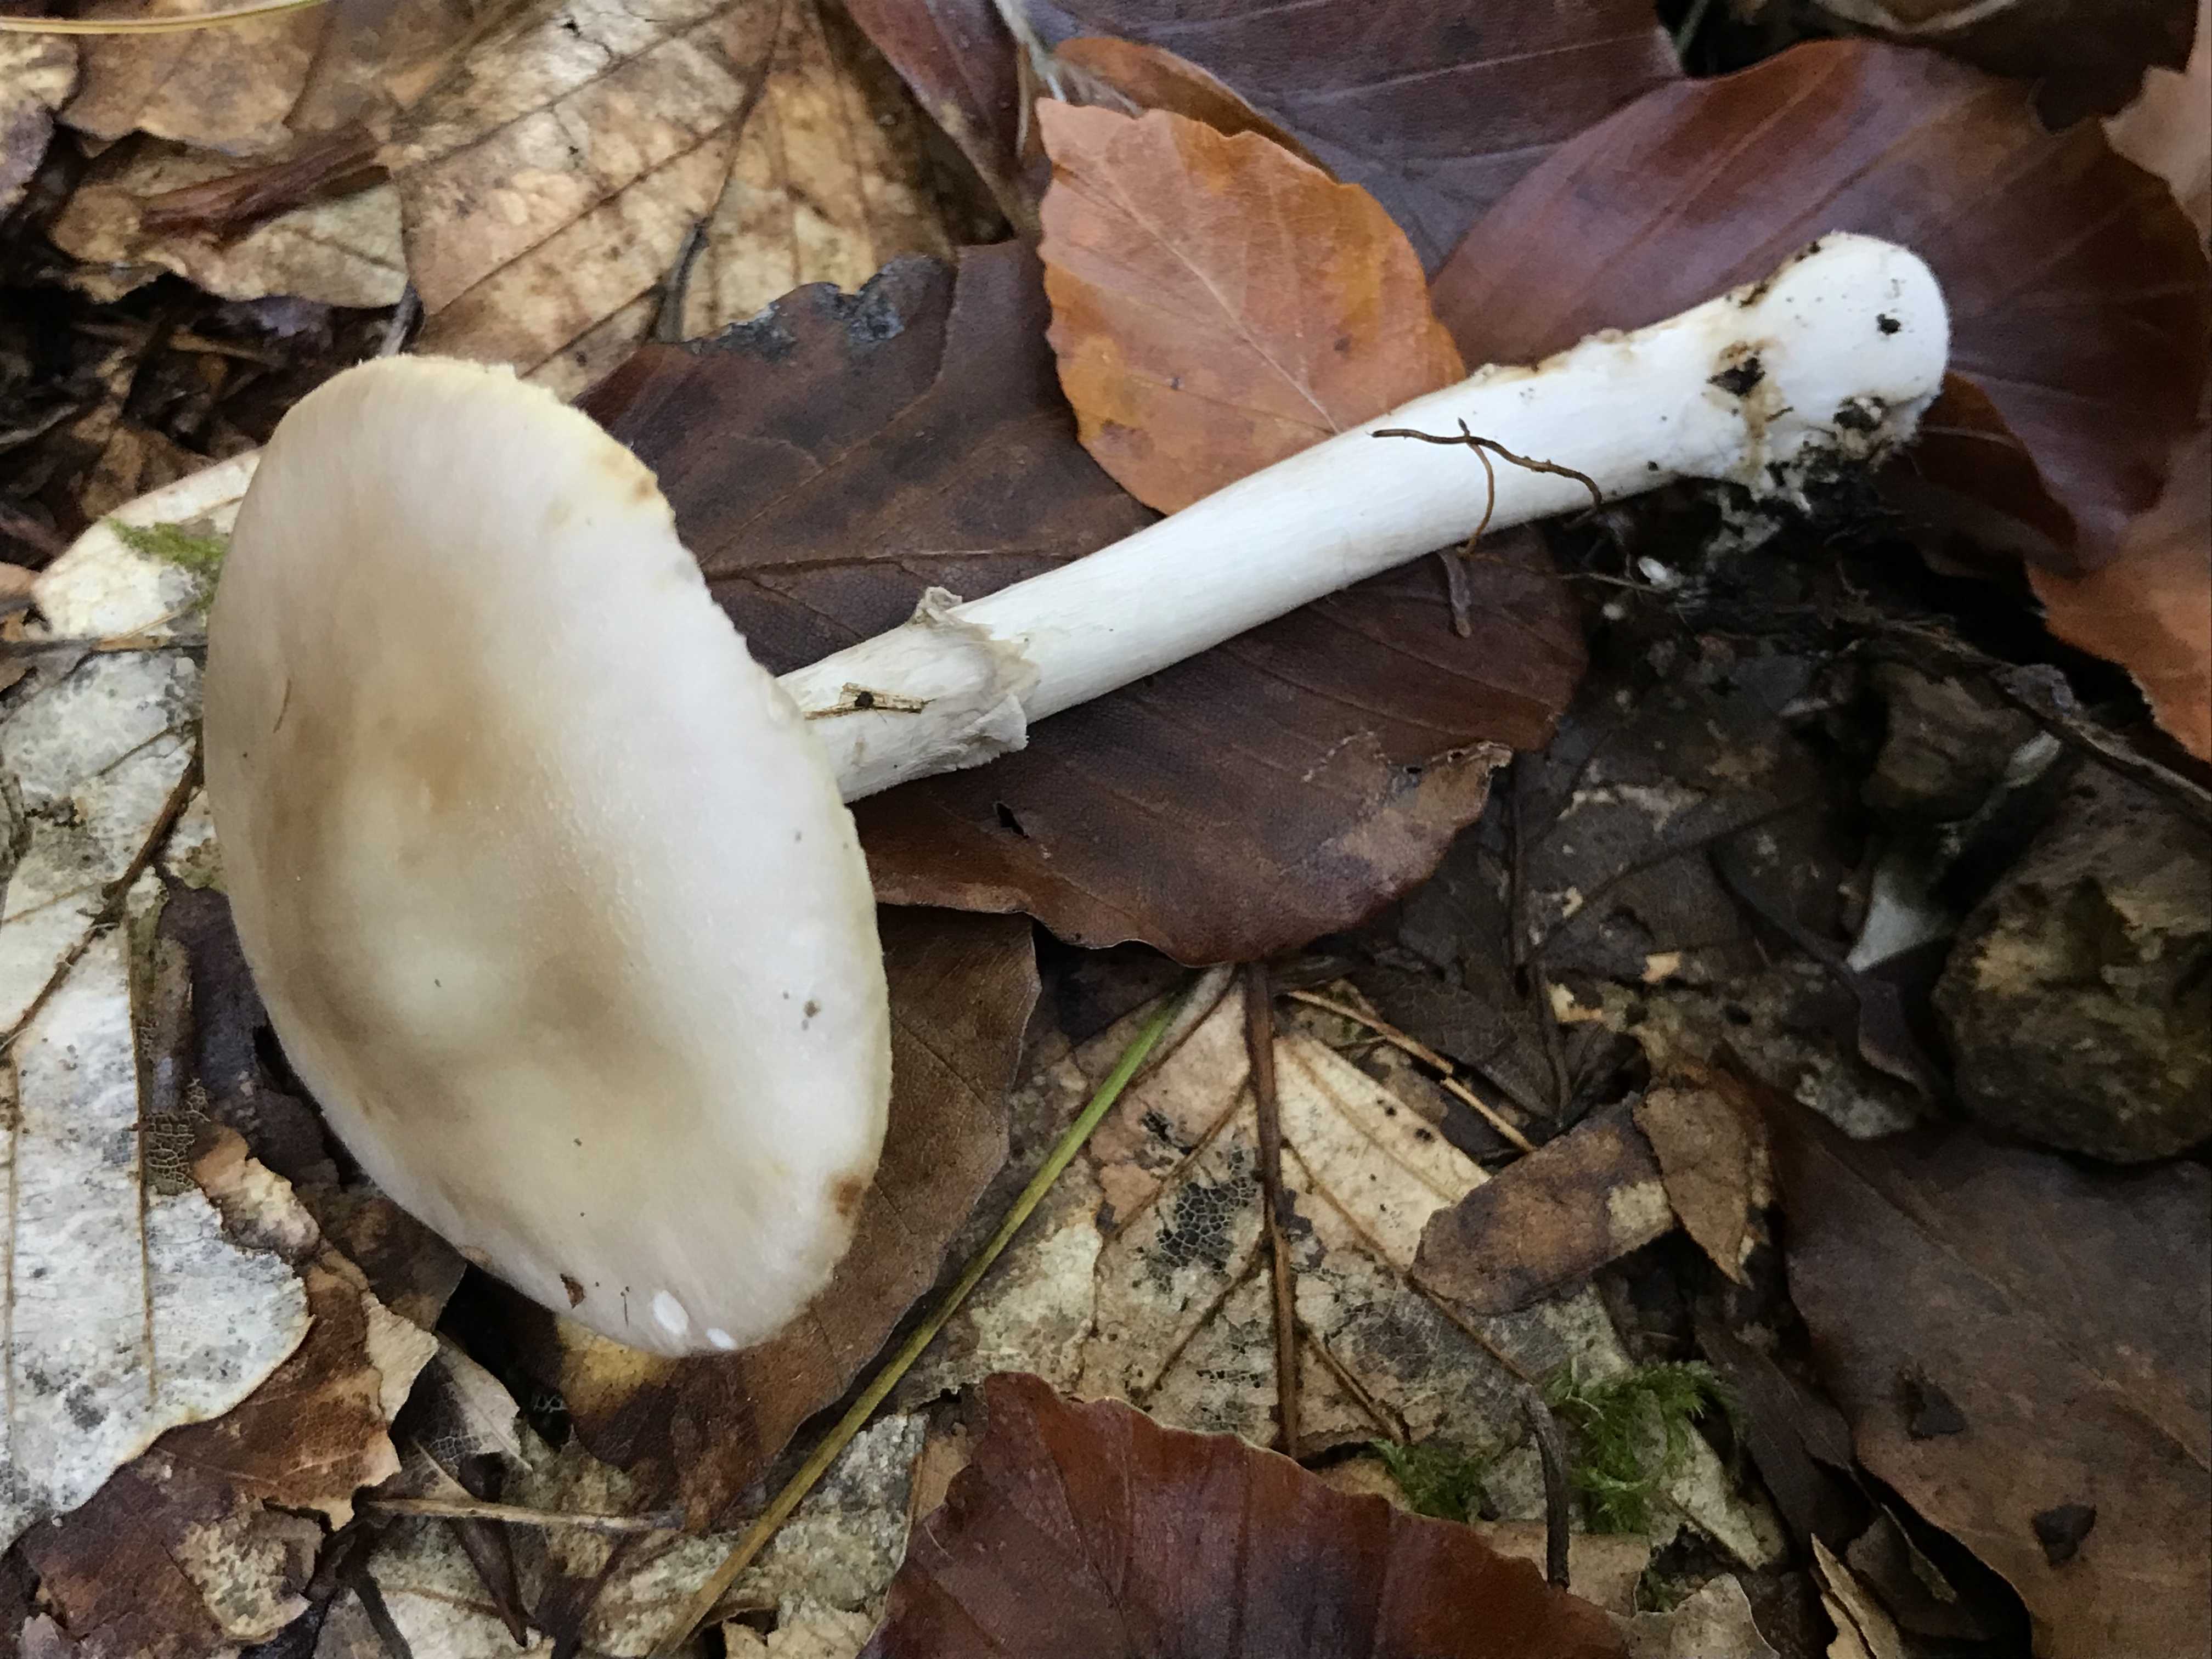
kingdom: Fungi
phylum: Basidiomycota
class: Agaricomycetes
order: Agaricales
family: Amanitaceae
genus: Amanita
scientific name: Amanita porphyria
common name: porfyr-fluesvamp
